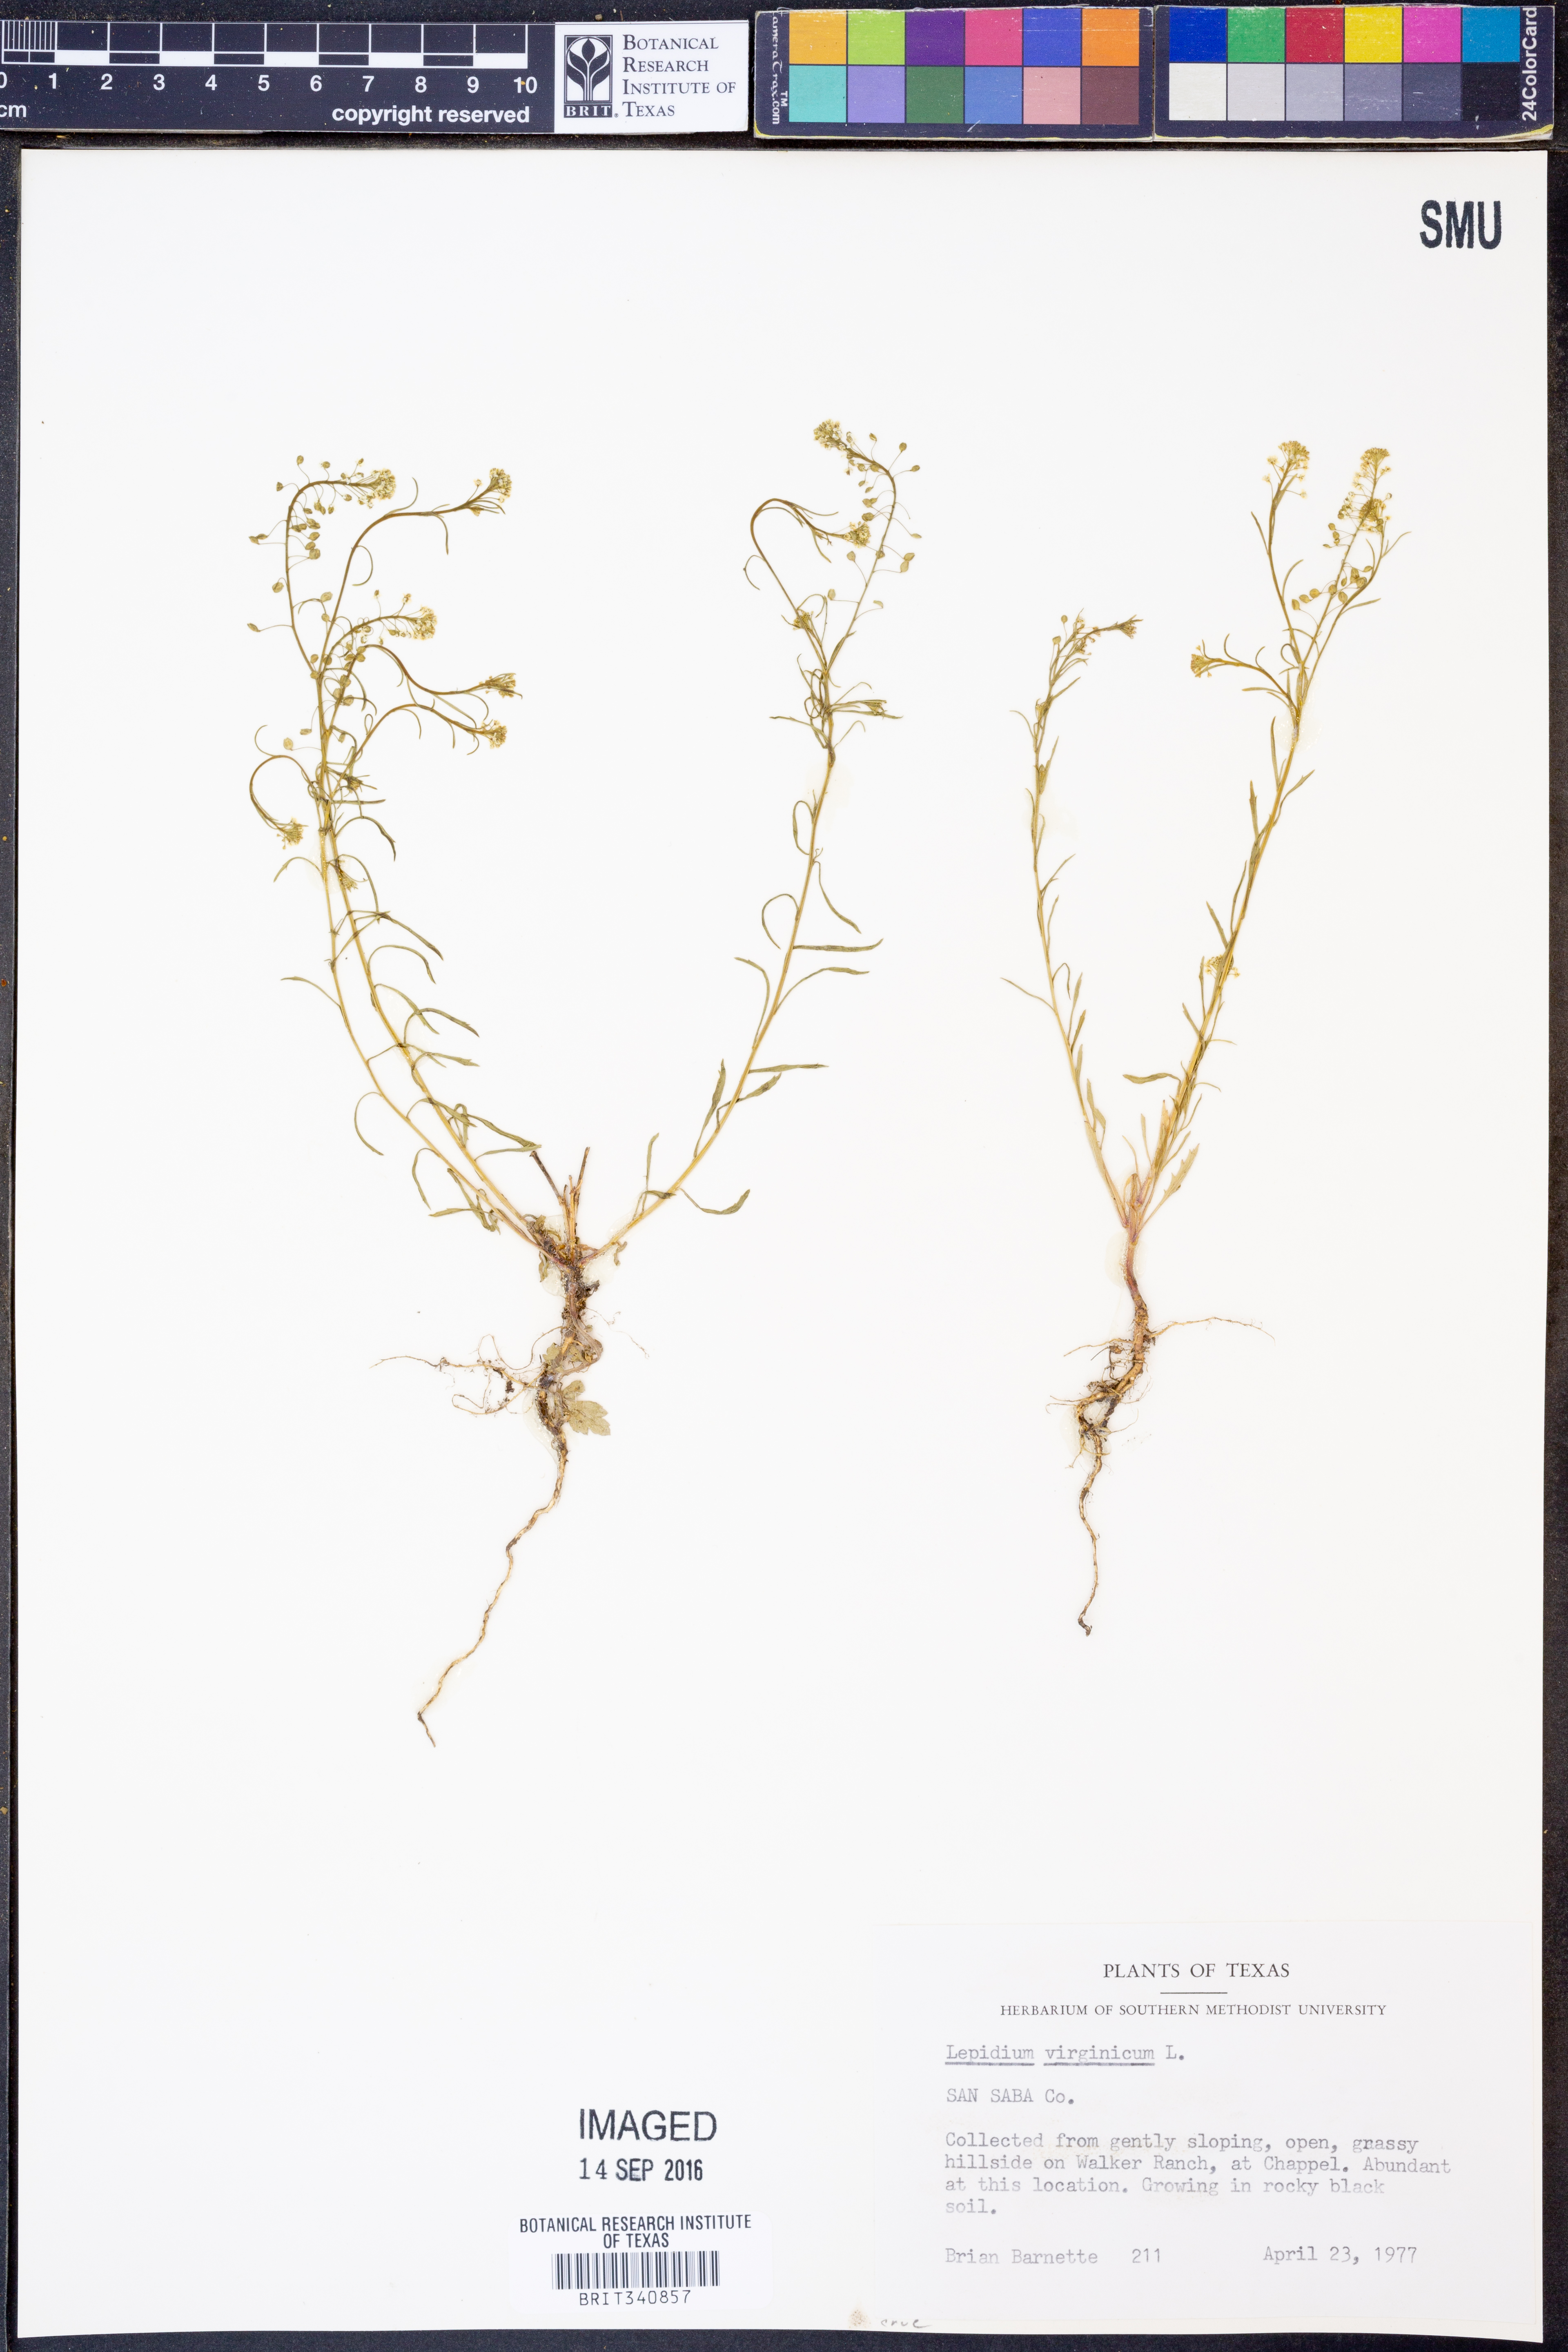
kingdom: Plantae
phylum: Tracheophyta
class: Magnoliopsida
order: Brassicales
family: Brassicaceae
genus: Lepidium
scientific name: Lepidium virginicum
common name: Least pepperwort
